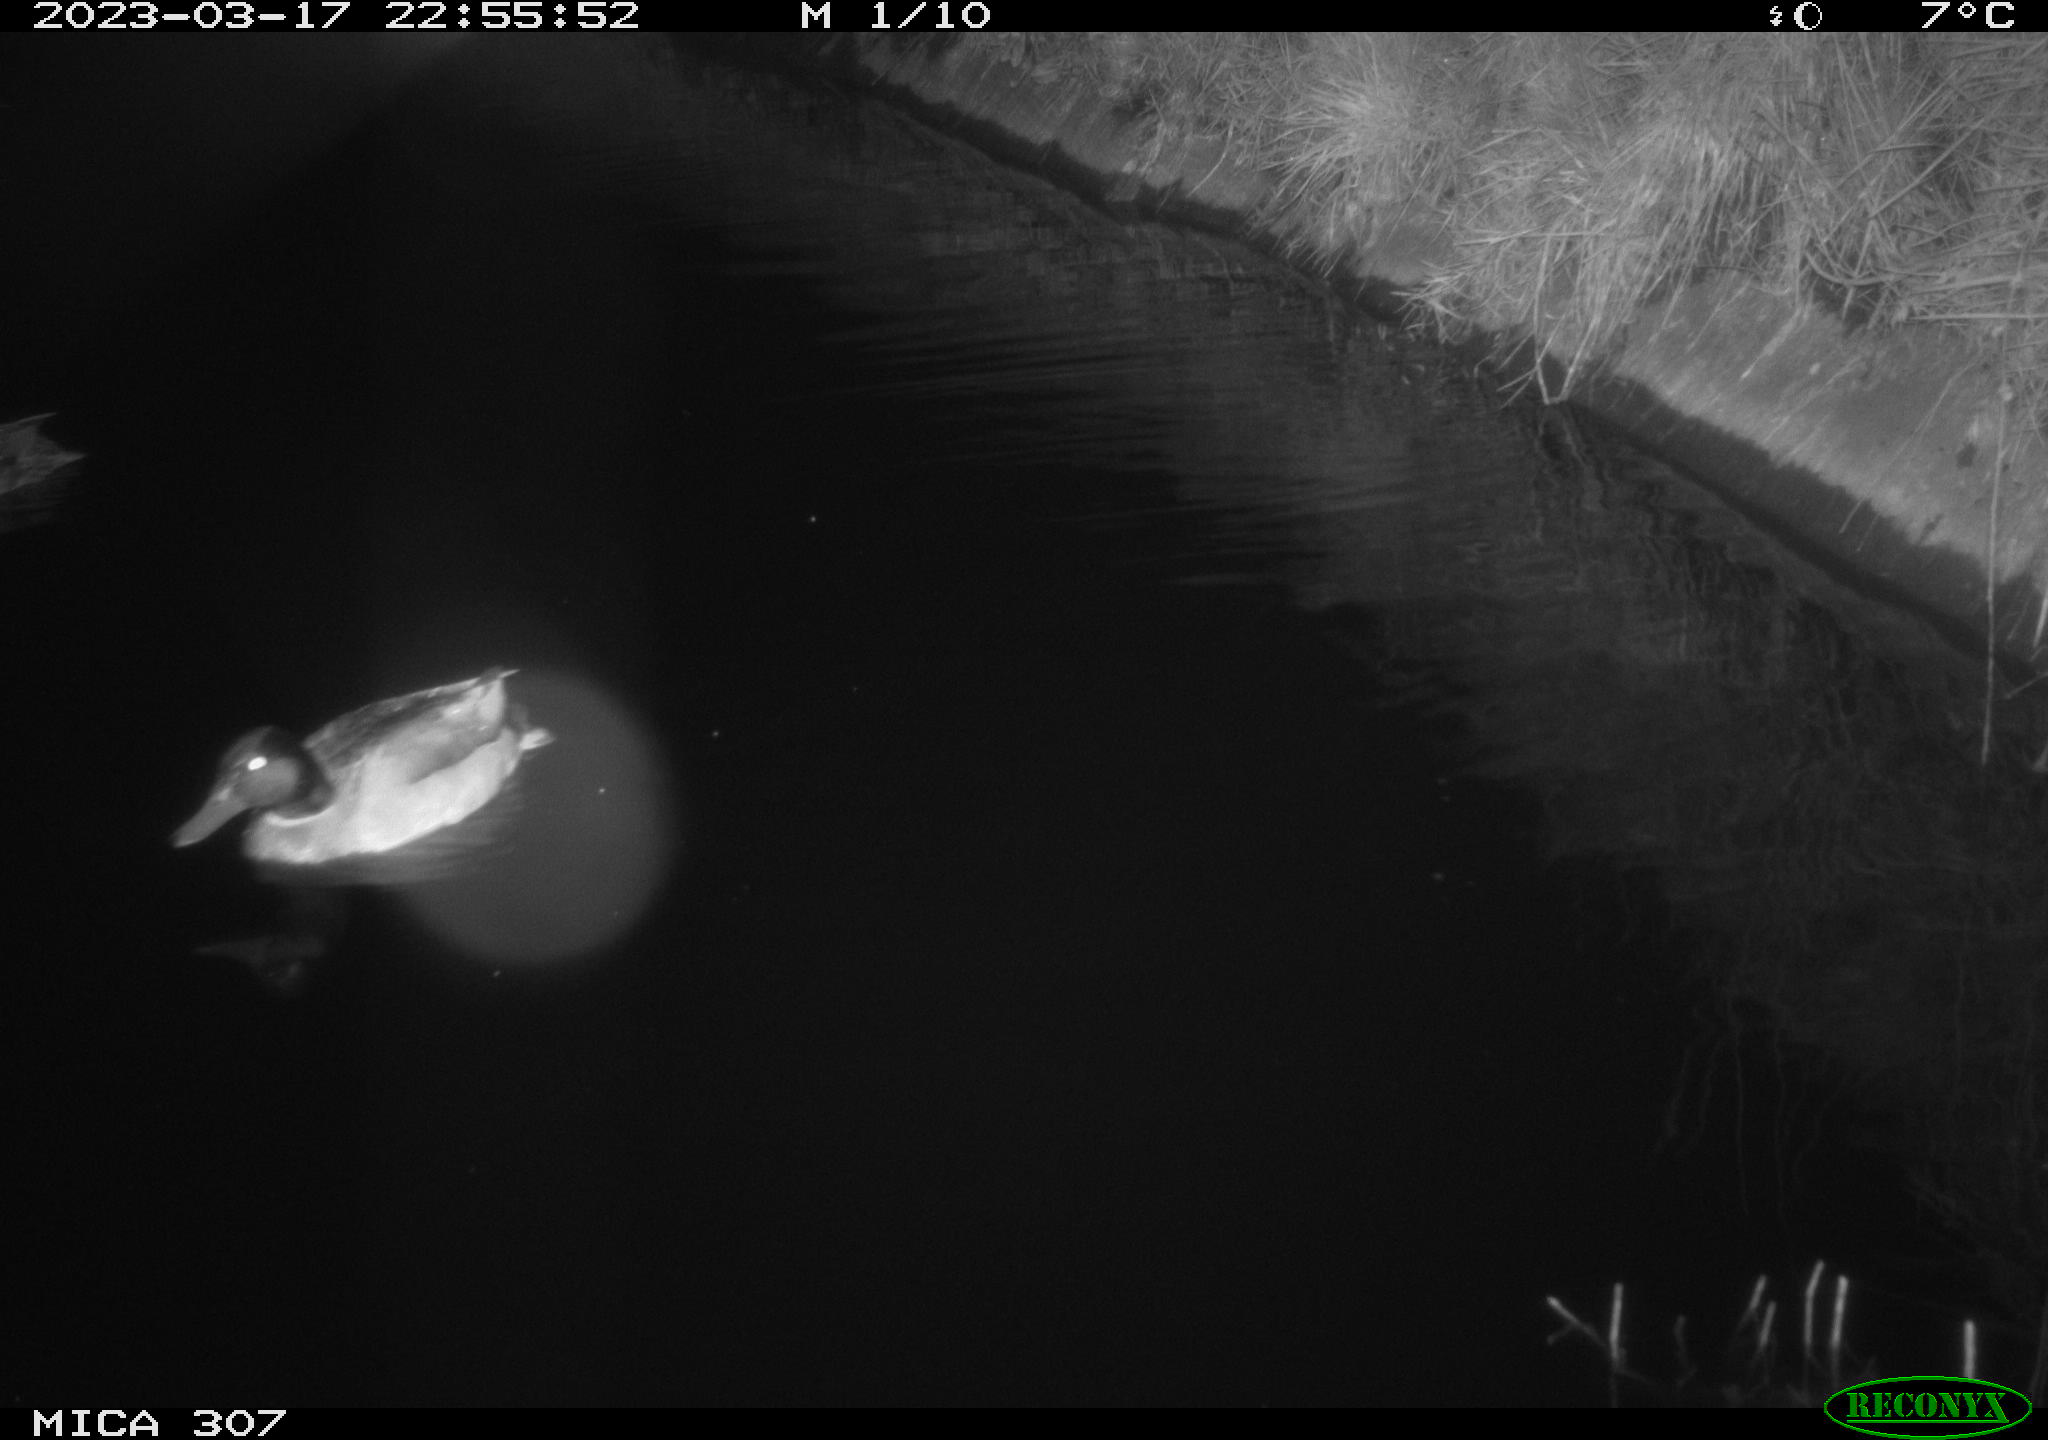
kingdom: Animalia
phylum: Chordata
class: Aves
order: Anseriformes
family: Anatidae
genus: Anas
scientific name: Anas
